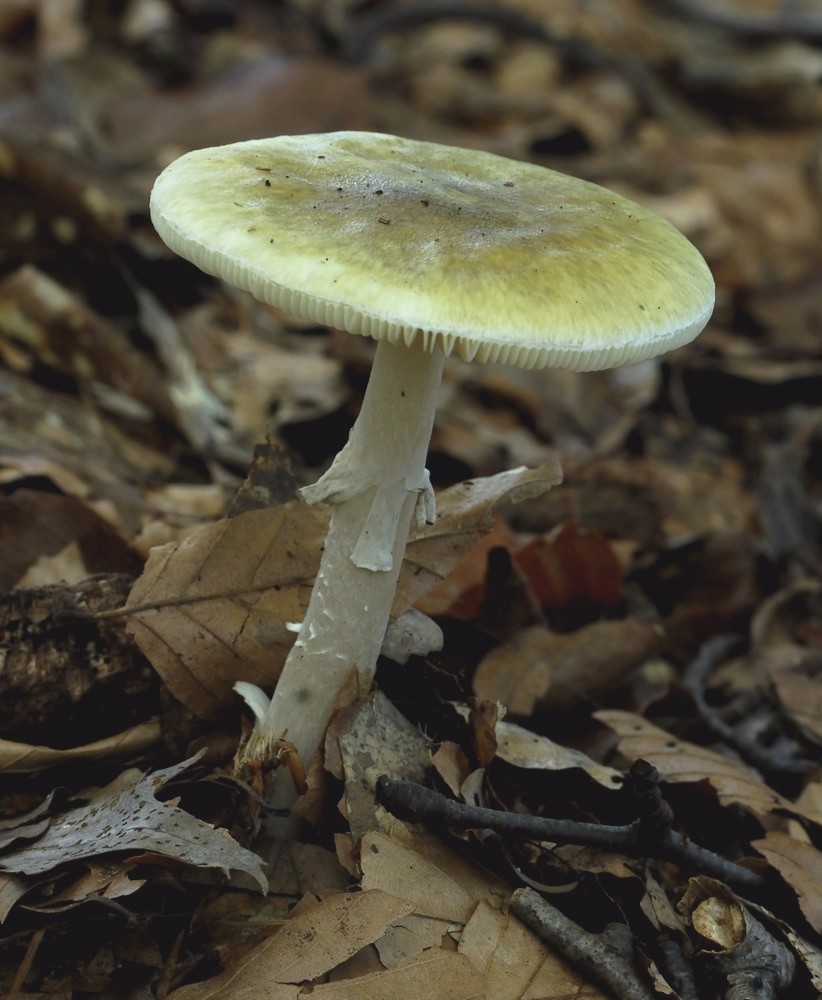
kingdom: Fungi
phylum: Basidiomycota
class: Agaricomycetes
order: Agaricales
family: Amanitaceae
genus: Amanita
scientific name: Amanita phalloides
